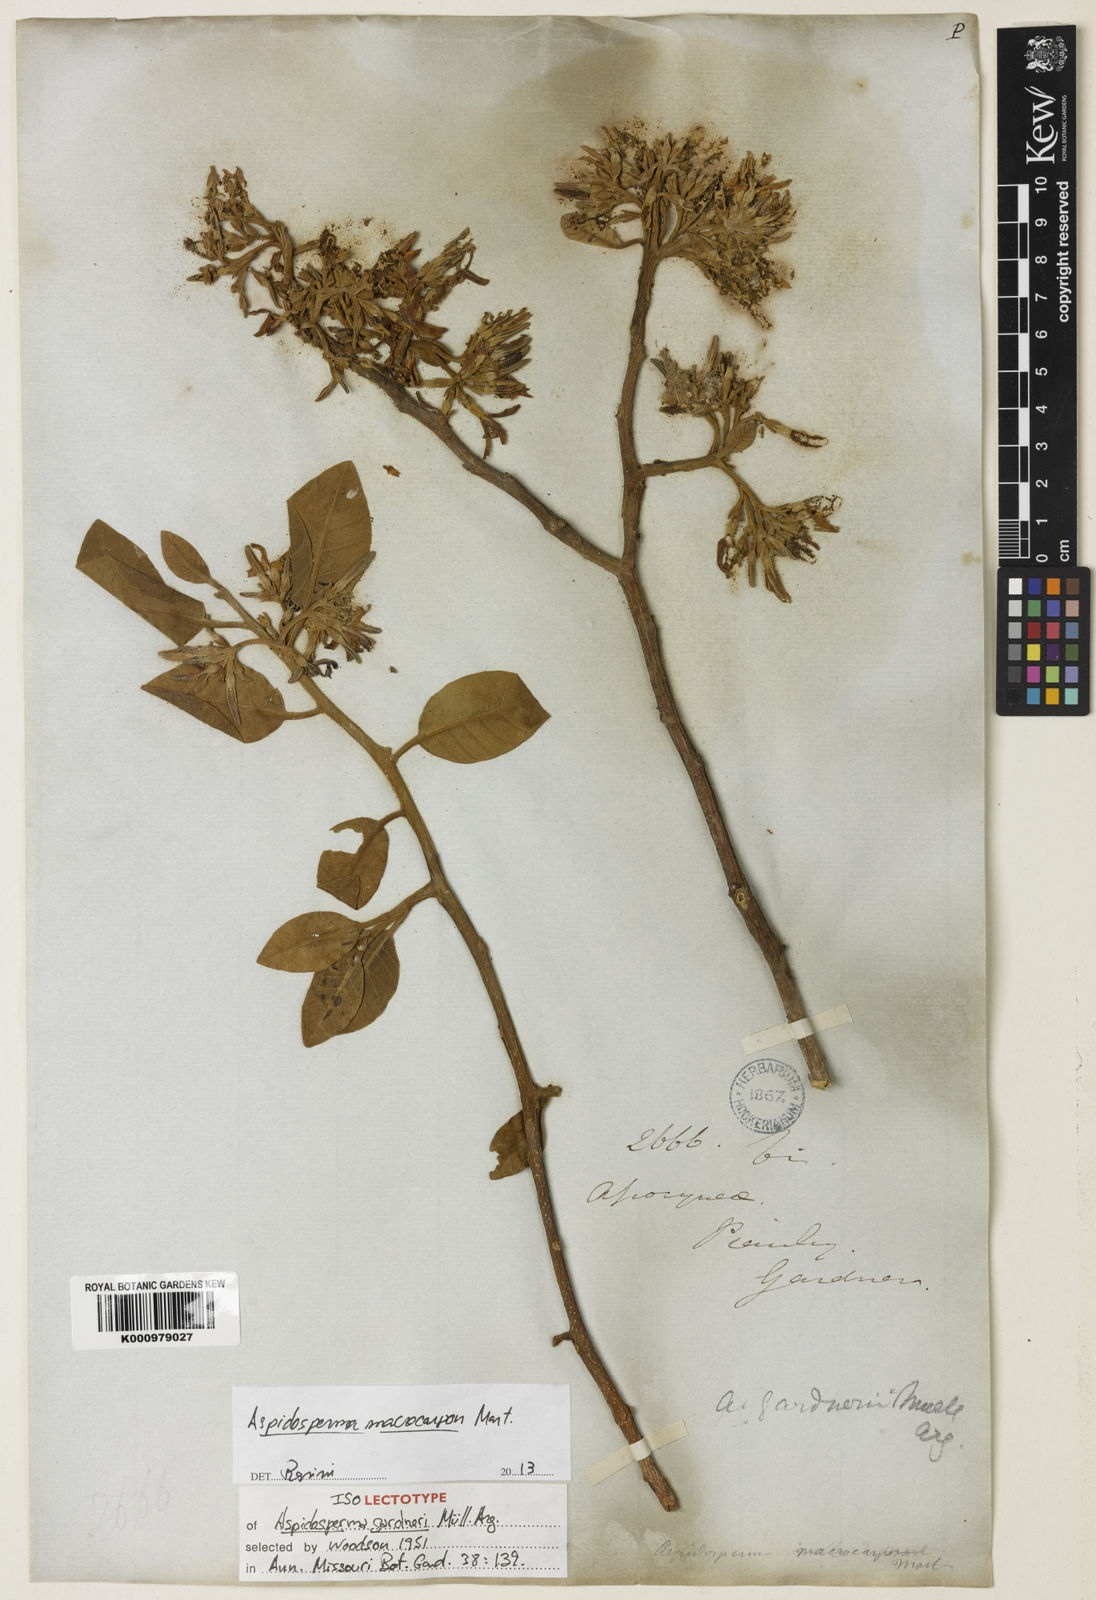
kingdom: Plantae
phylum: Tracheophyta
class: Magnoliopsida
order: Gentianales
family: Apocynaceae
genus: Aspidosperma
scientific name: Aspidosperma macrocarpon
